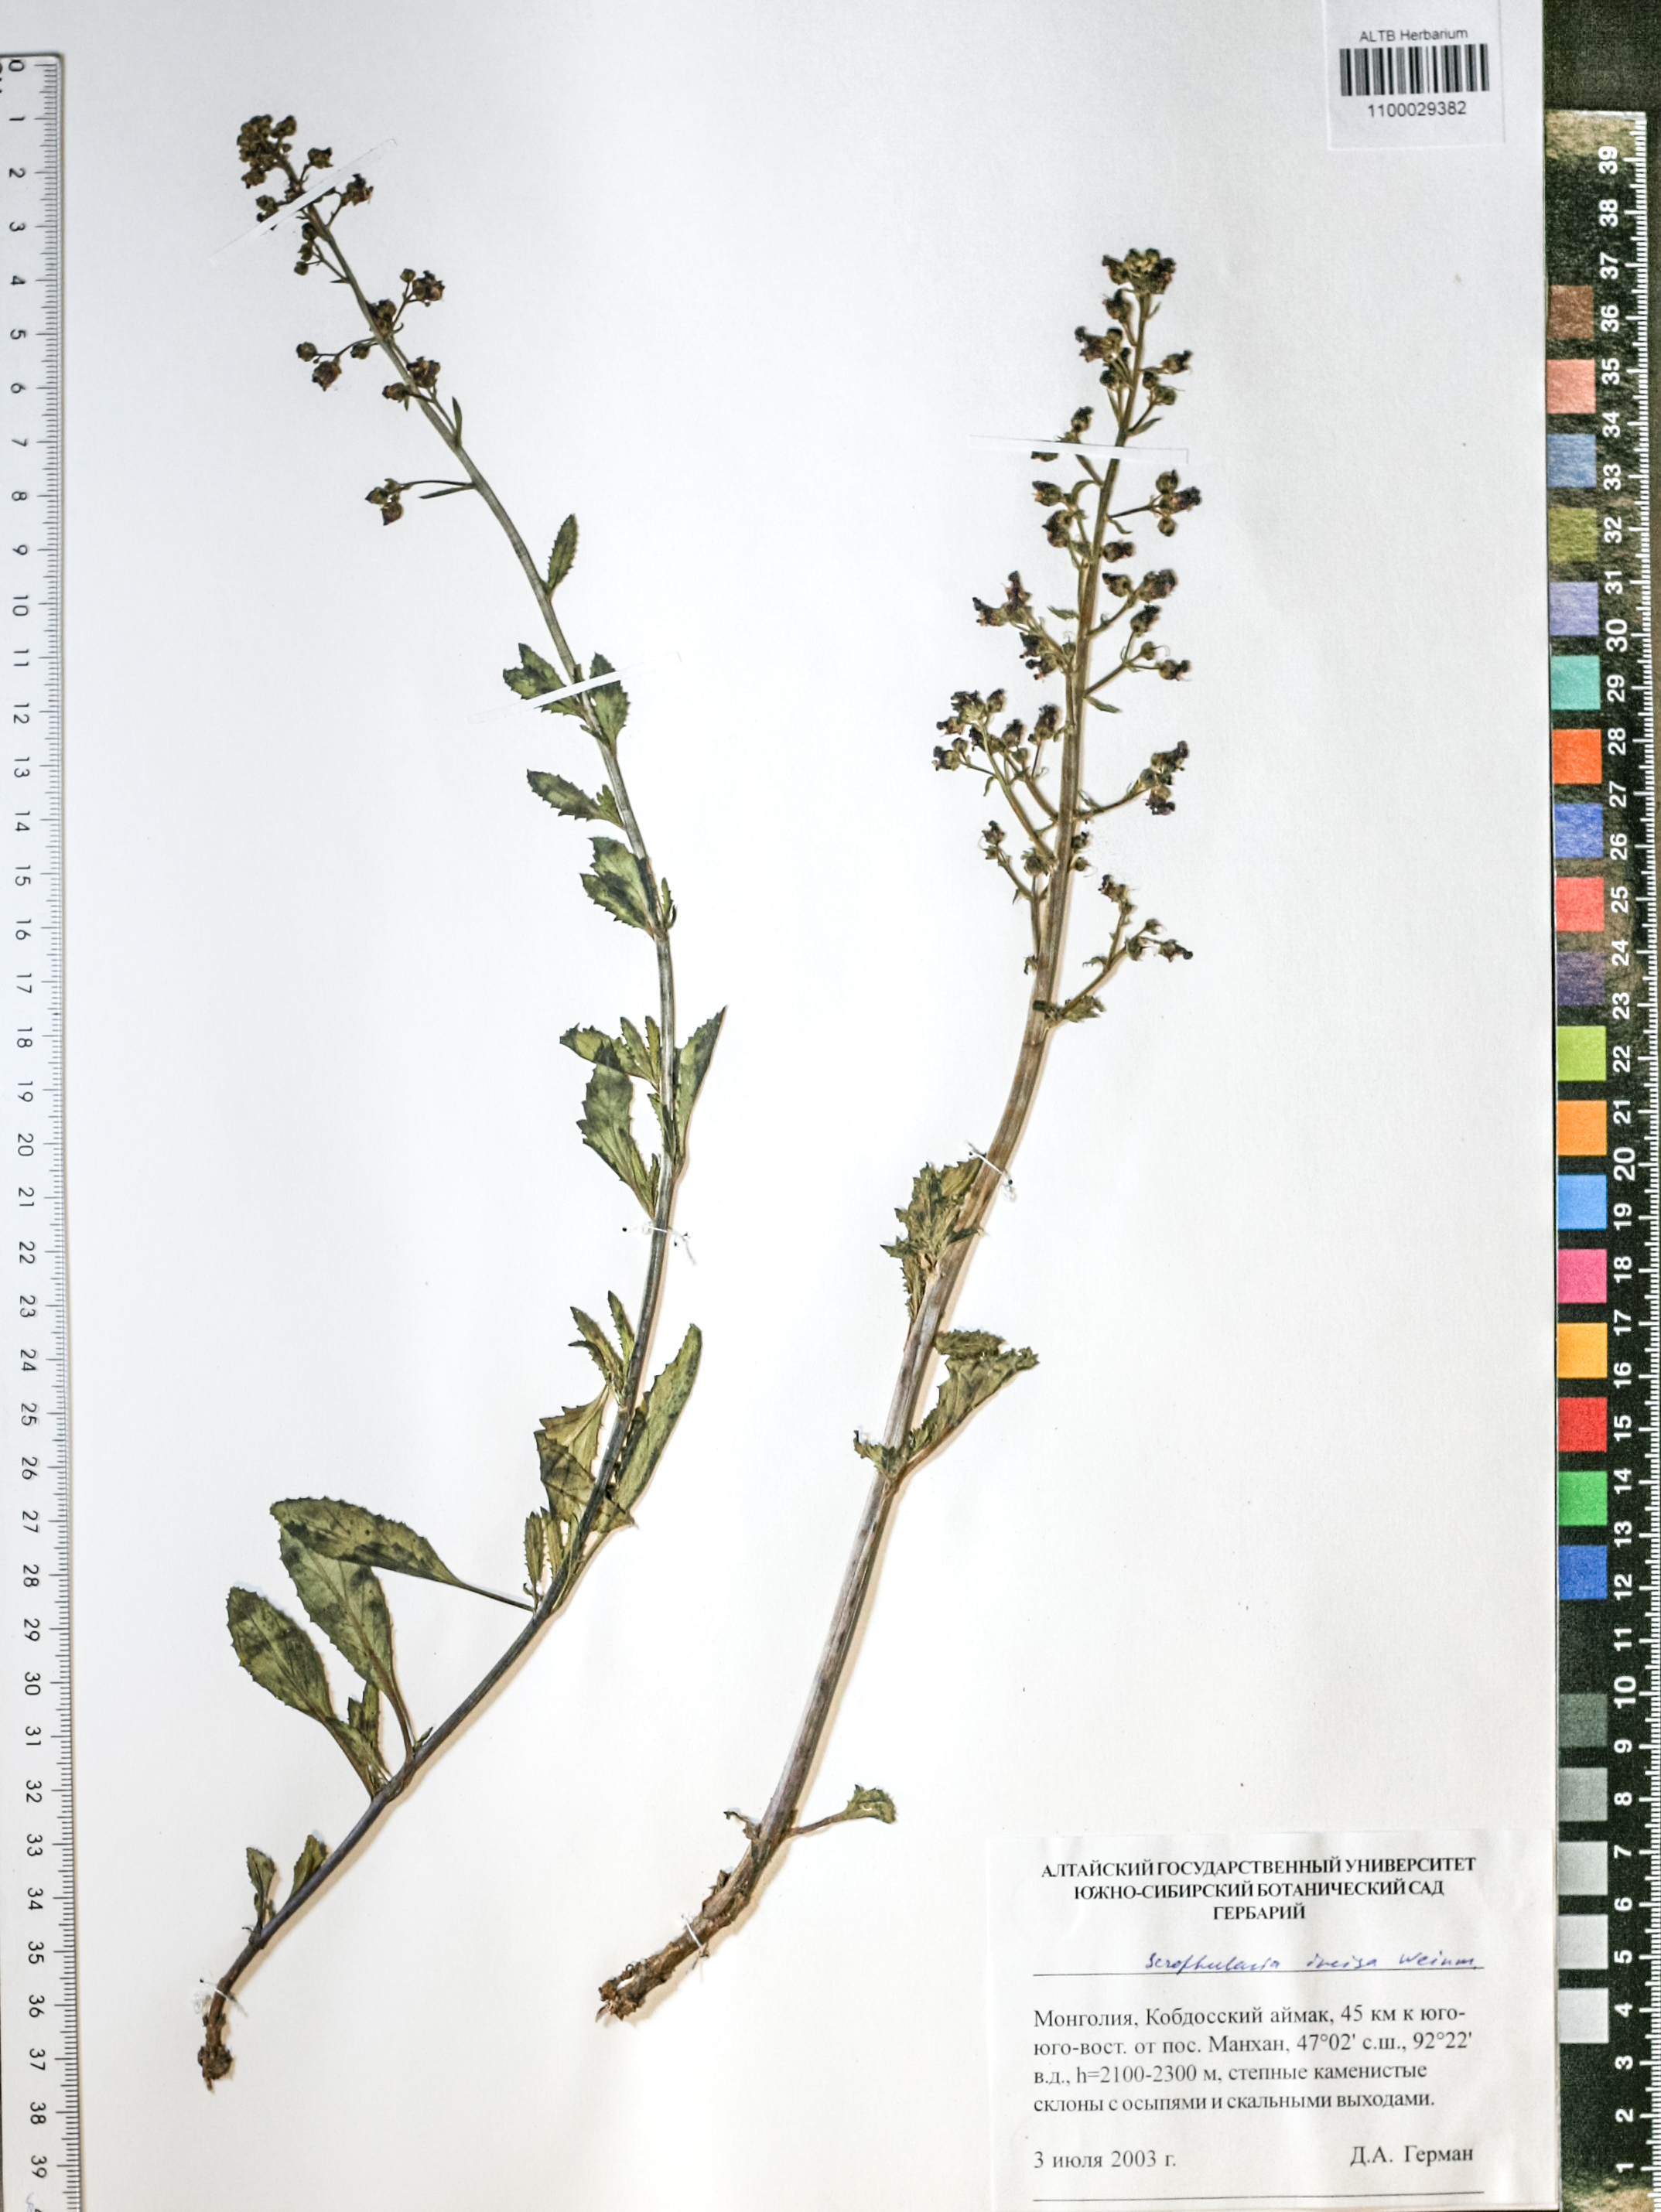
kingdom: Plantae
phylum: Tracheophyta
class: Magnoliopsida
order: Lamiales
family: Scrophulariaceae
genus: Scrophularia
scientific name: Scrophularia incisa
